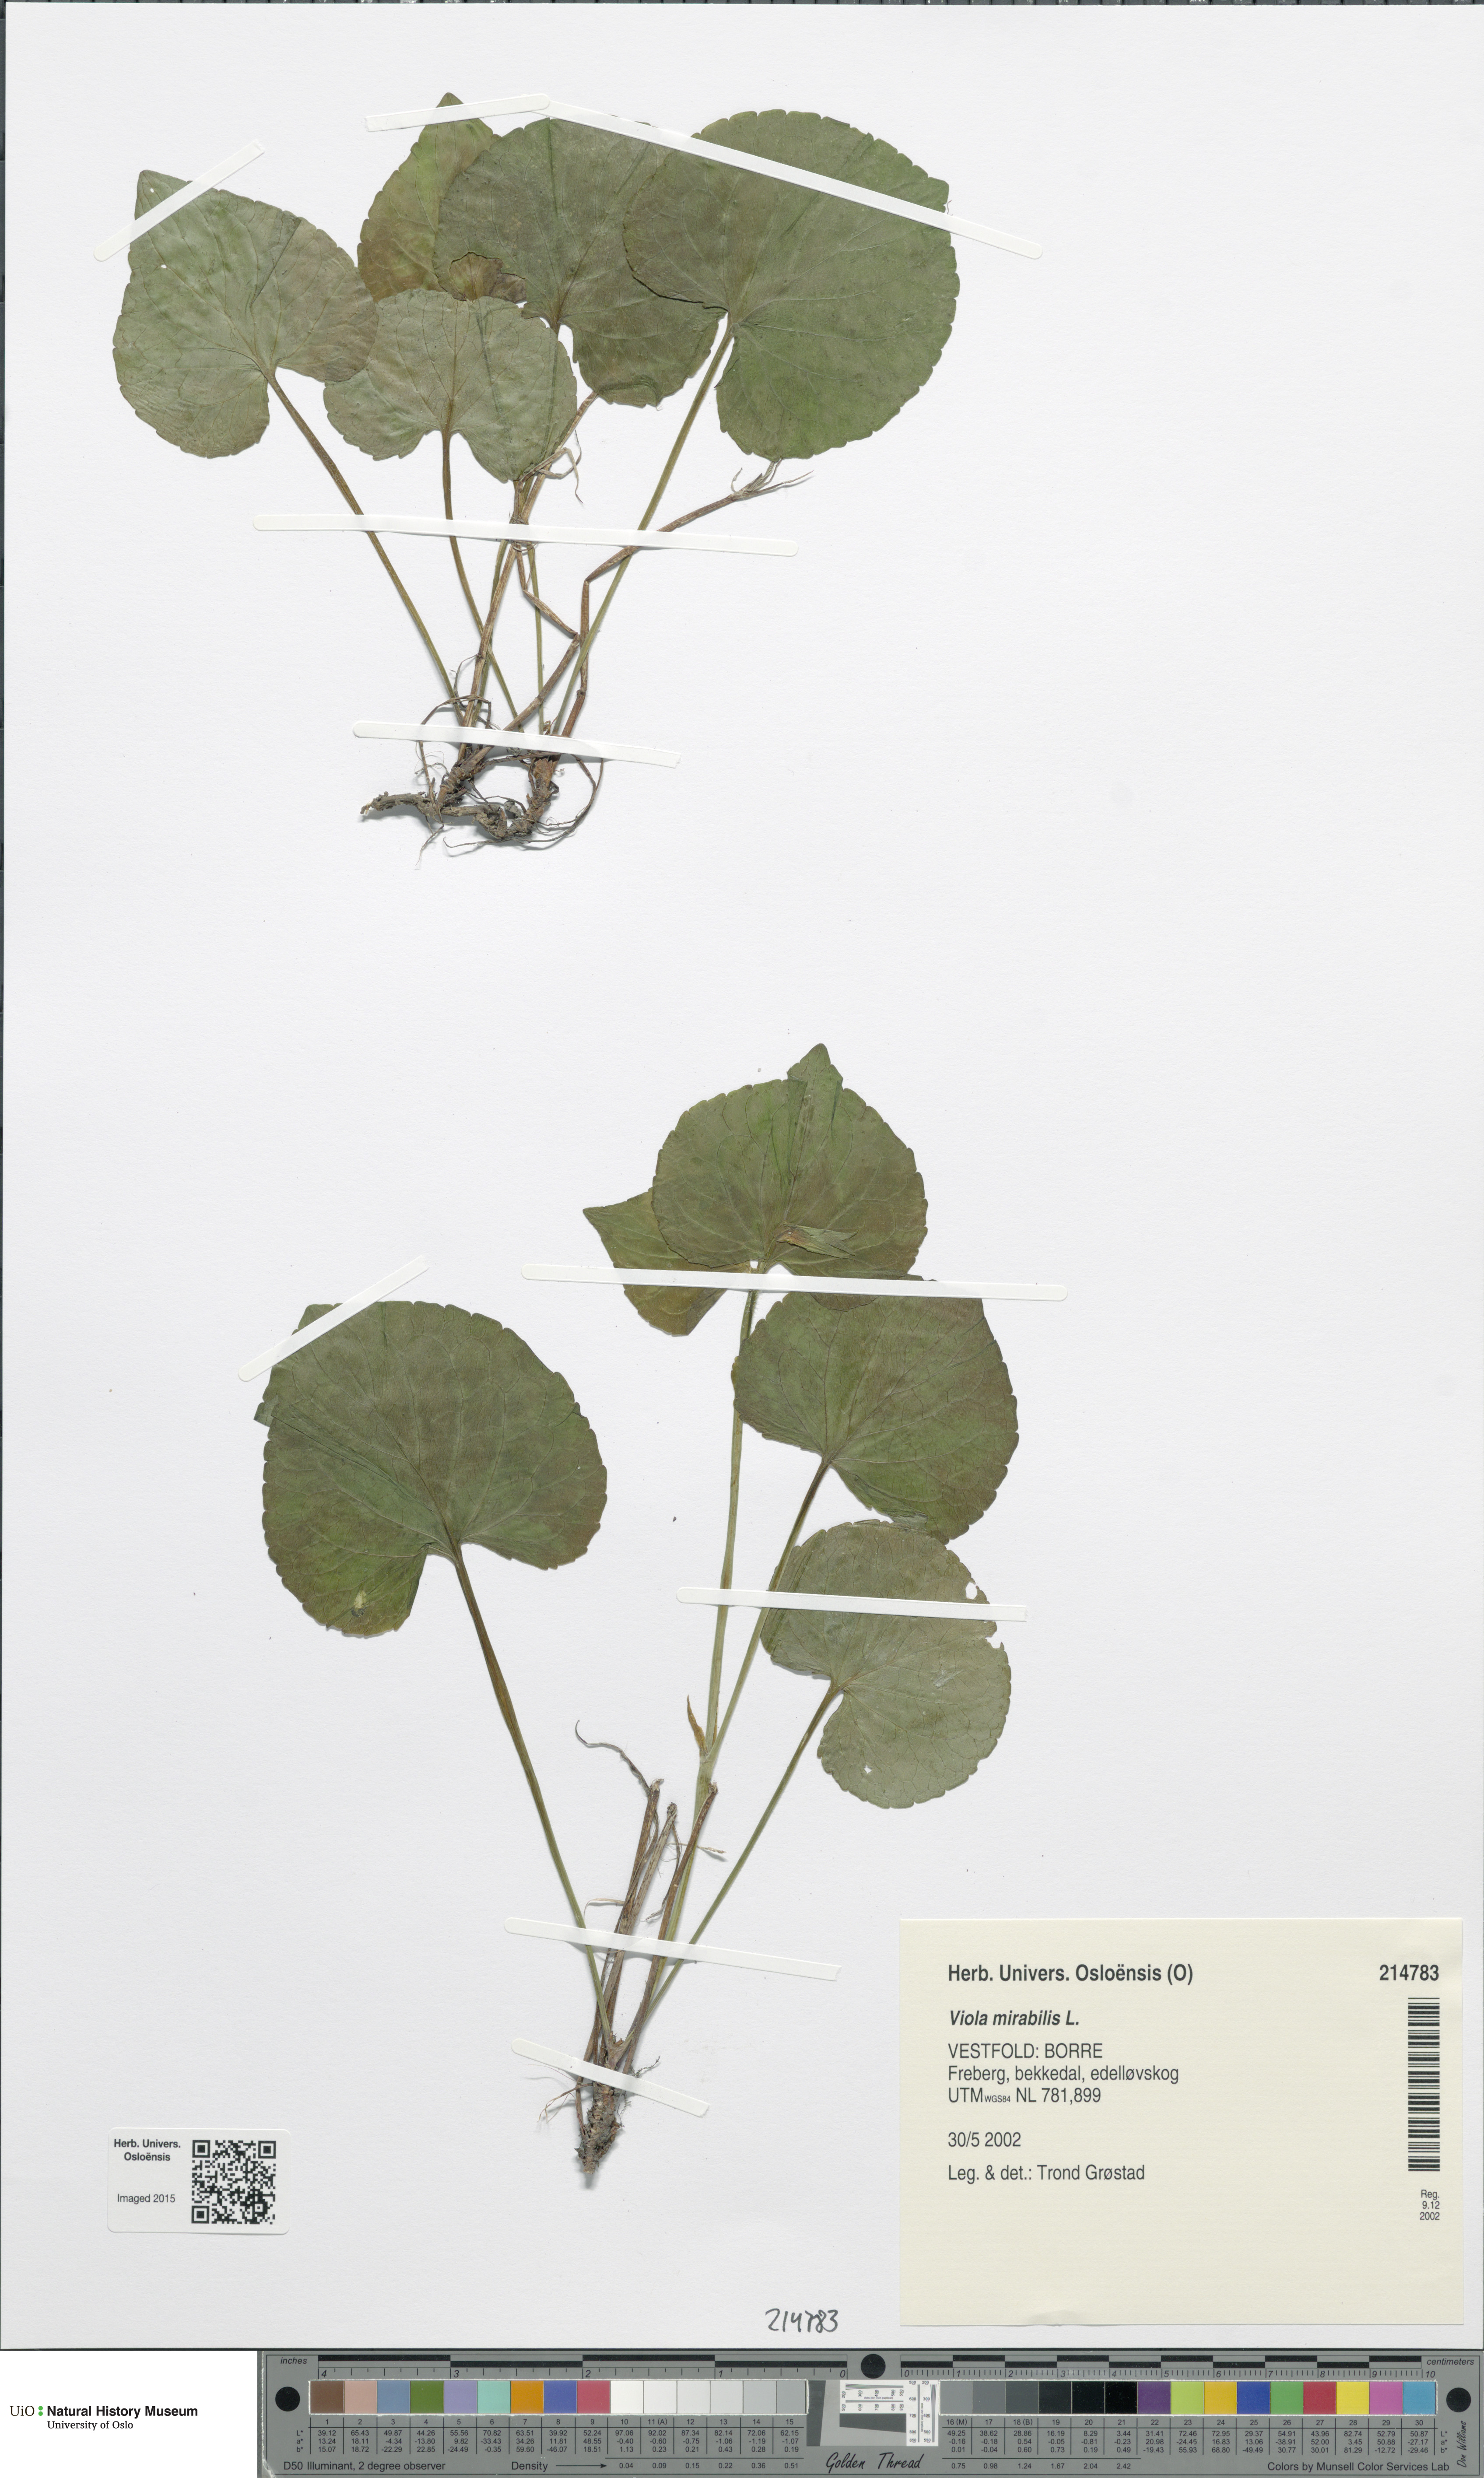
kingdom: Plantae
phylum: Tracheophyta
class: Magnoliopsida
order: Malpighiales
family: Violaceae
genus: Viola
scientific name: Viola mirabilis
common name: Wonder violet
